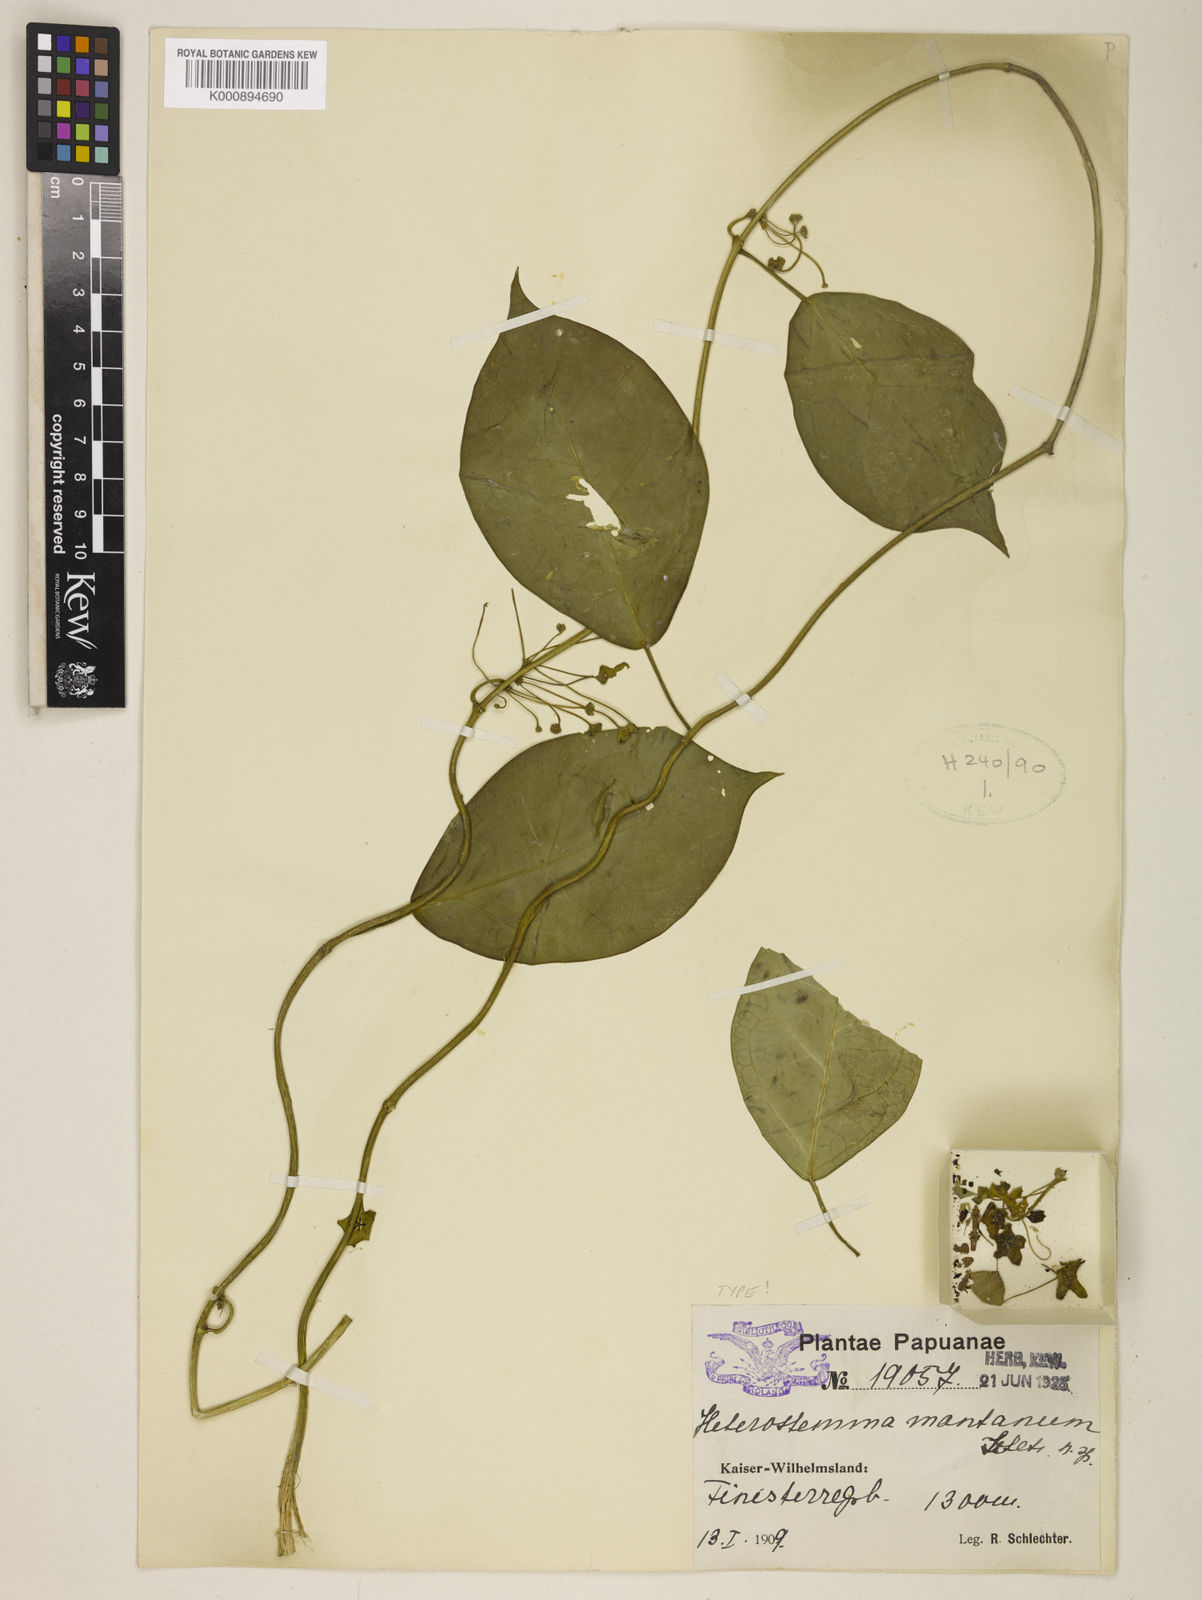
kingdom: Plantae
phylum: Tracheophyta
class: Magnoliopsida
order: Gentianales
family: Apocynaceae
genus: Heterostemma
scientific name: Heterostemma montanum
